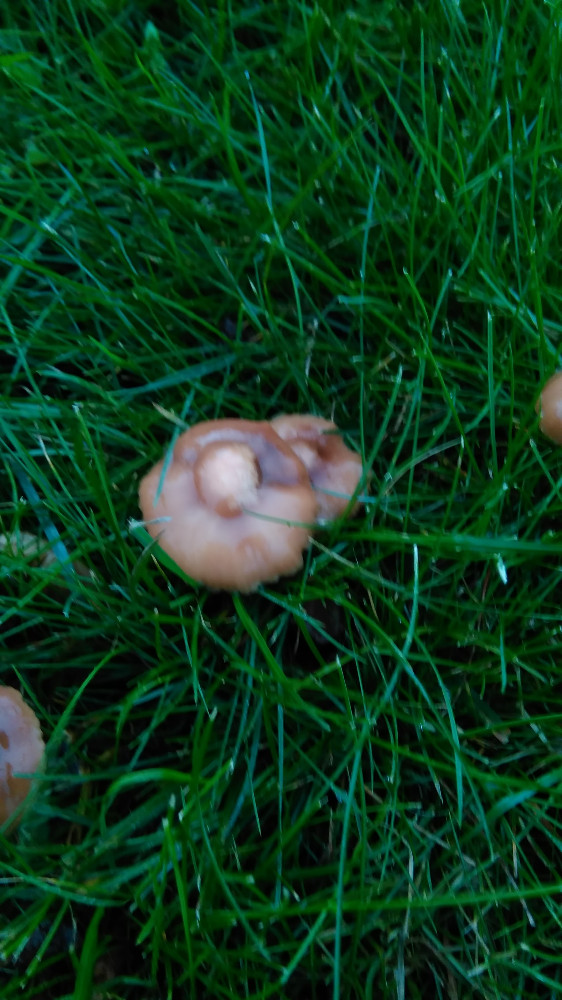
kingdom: Fungi
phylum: Basidiomycota
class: Agaricomycetes
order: Agaricales
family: Marasmiaceae
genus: Marasmius
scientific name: Marasmius oreades
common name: elledans-bruskhat
